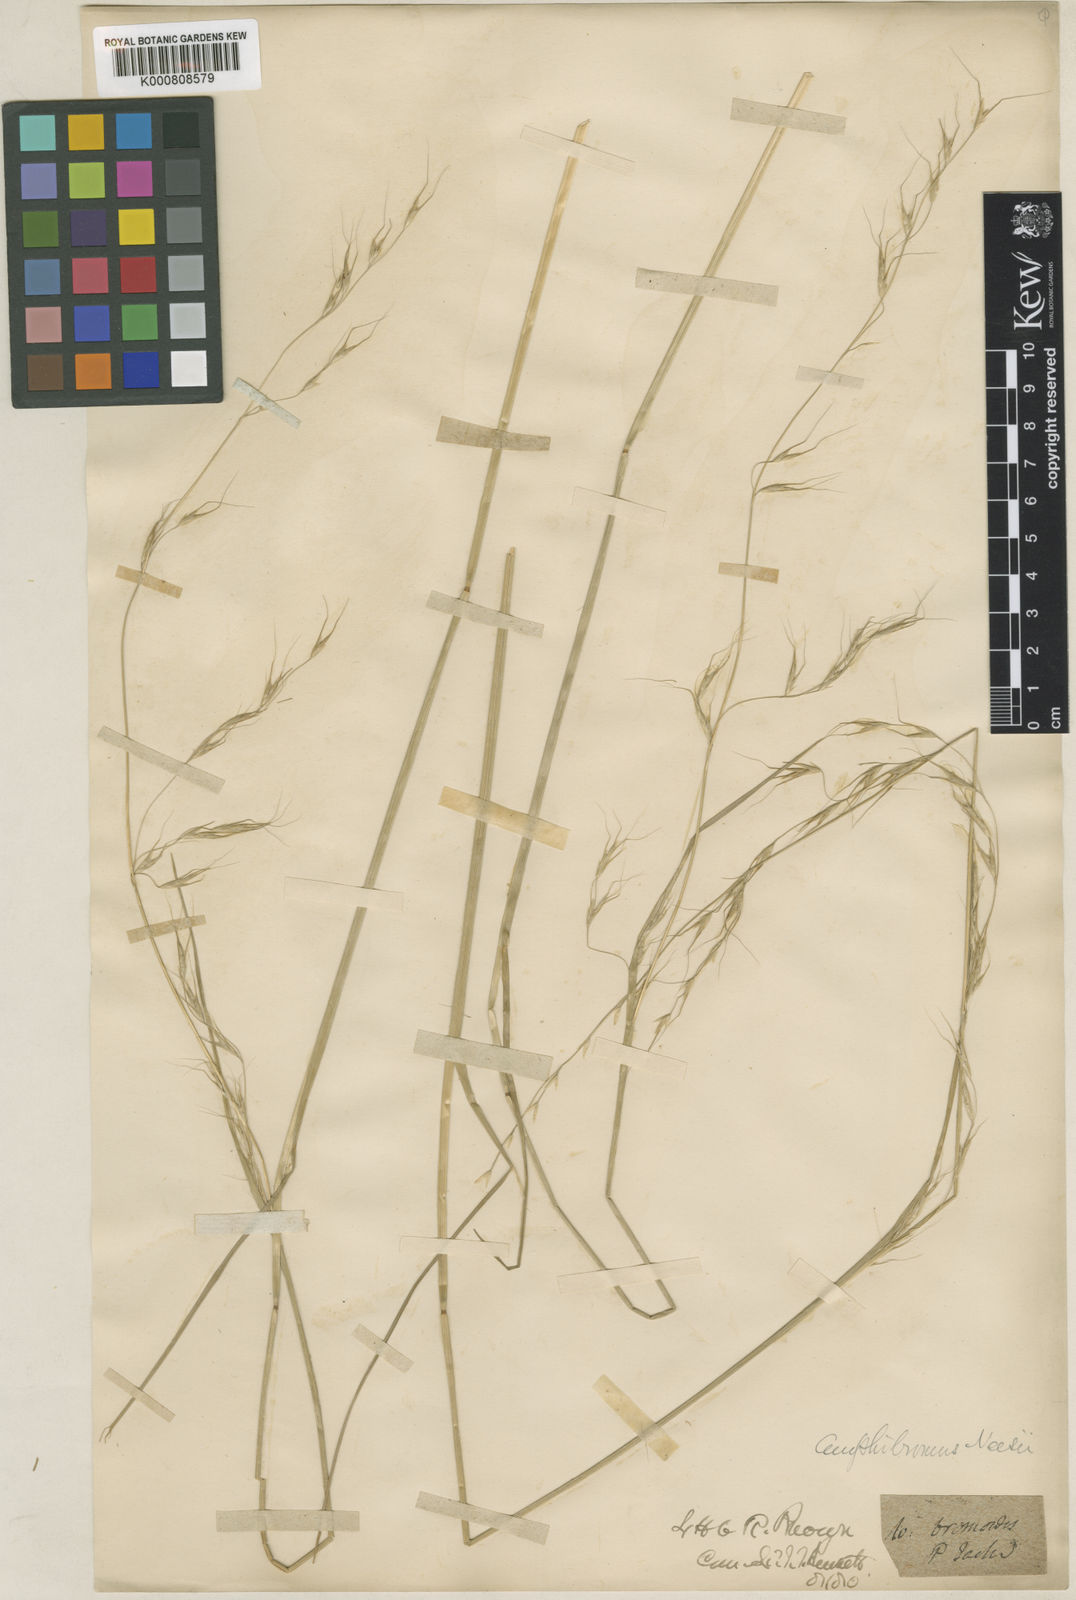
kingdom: Plantae
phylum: Tracheophyta
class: Liliopsida
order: Poales
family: Poaceae
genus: Amphibromus
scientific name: Amphibromus neesii
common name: Australian wallaby grass
